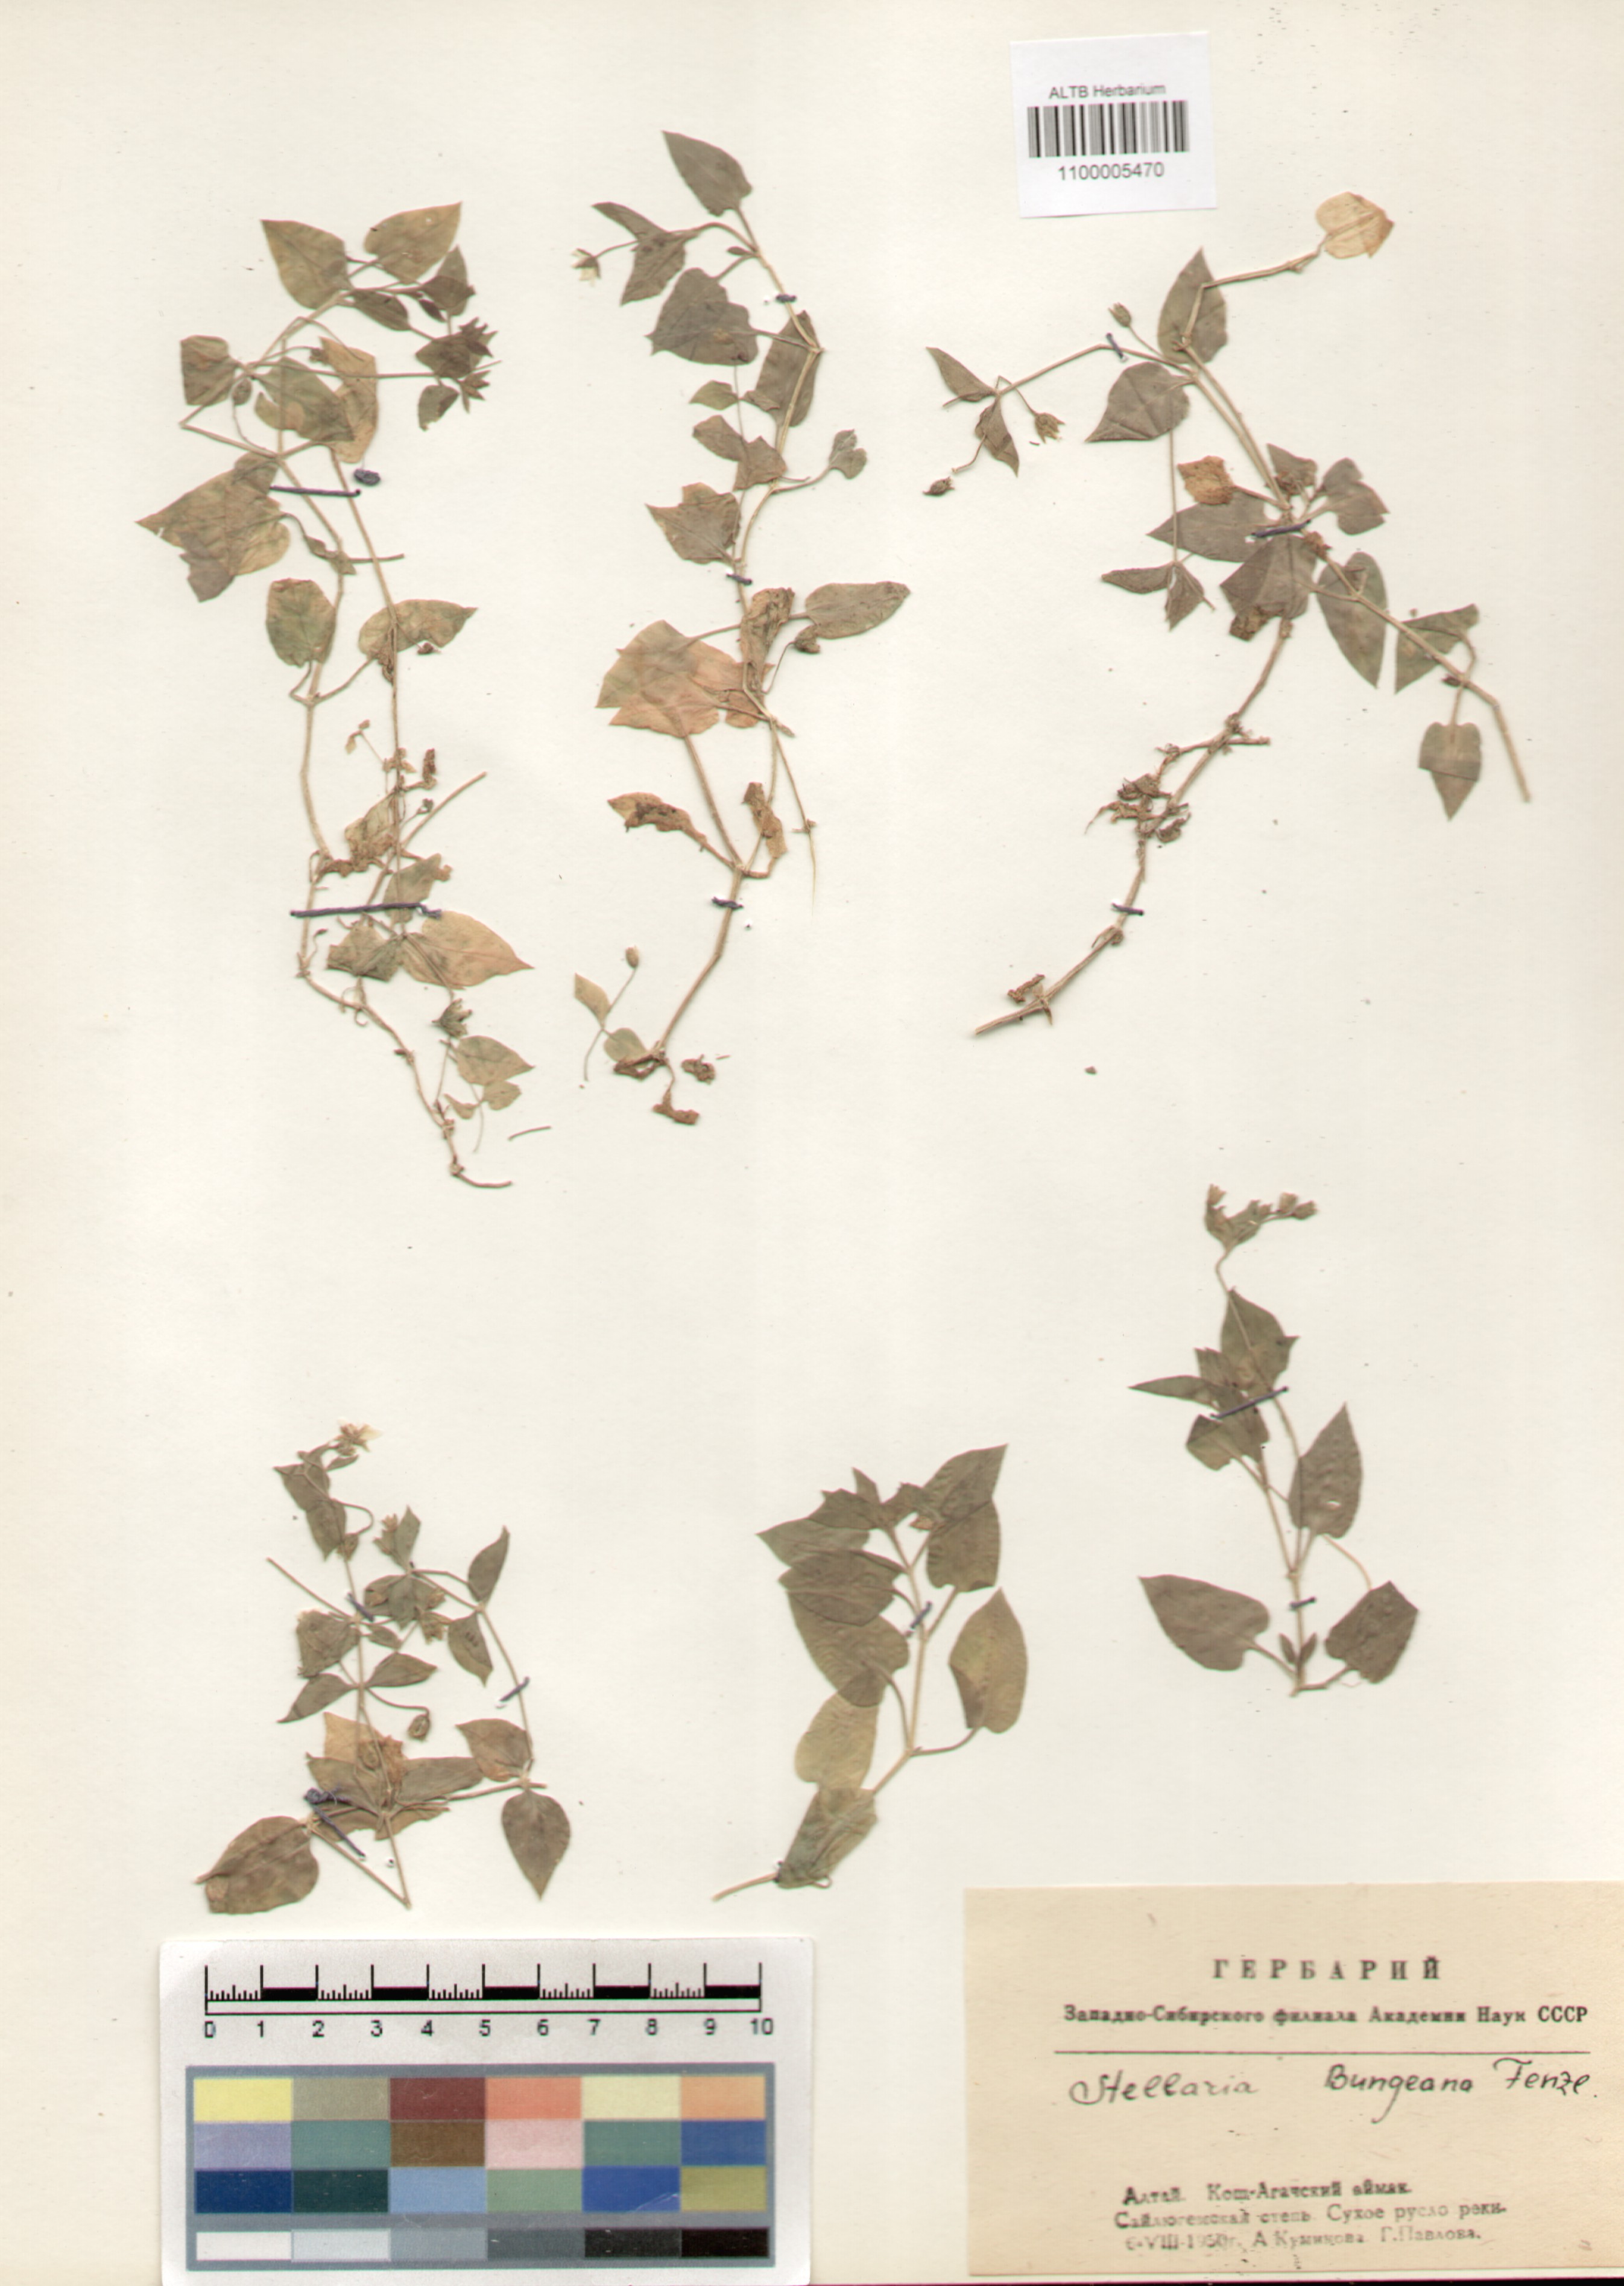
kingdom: Plantae
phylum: Tracheophyta
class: Magnoliopsida
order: Caryophyllales
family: Caryophyllaceae
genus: Stellaria
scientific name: Stellaria bungeana
